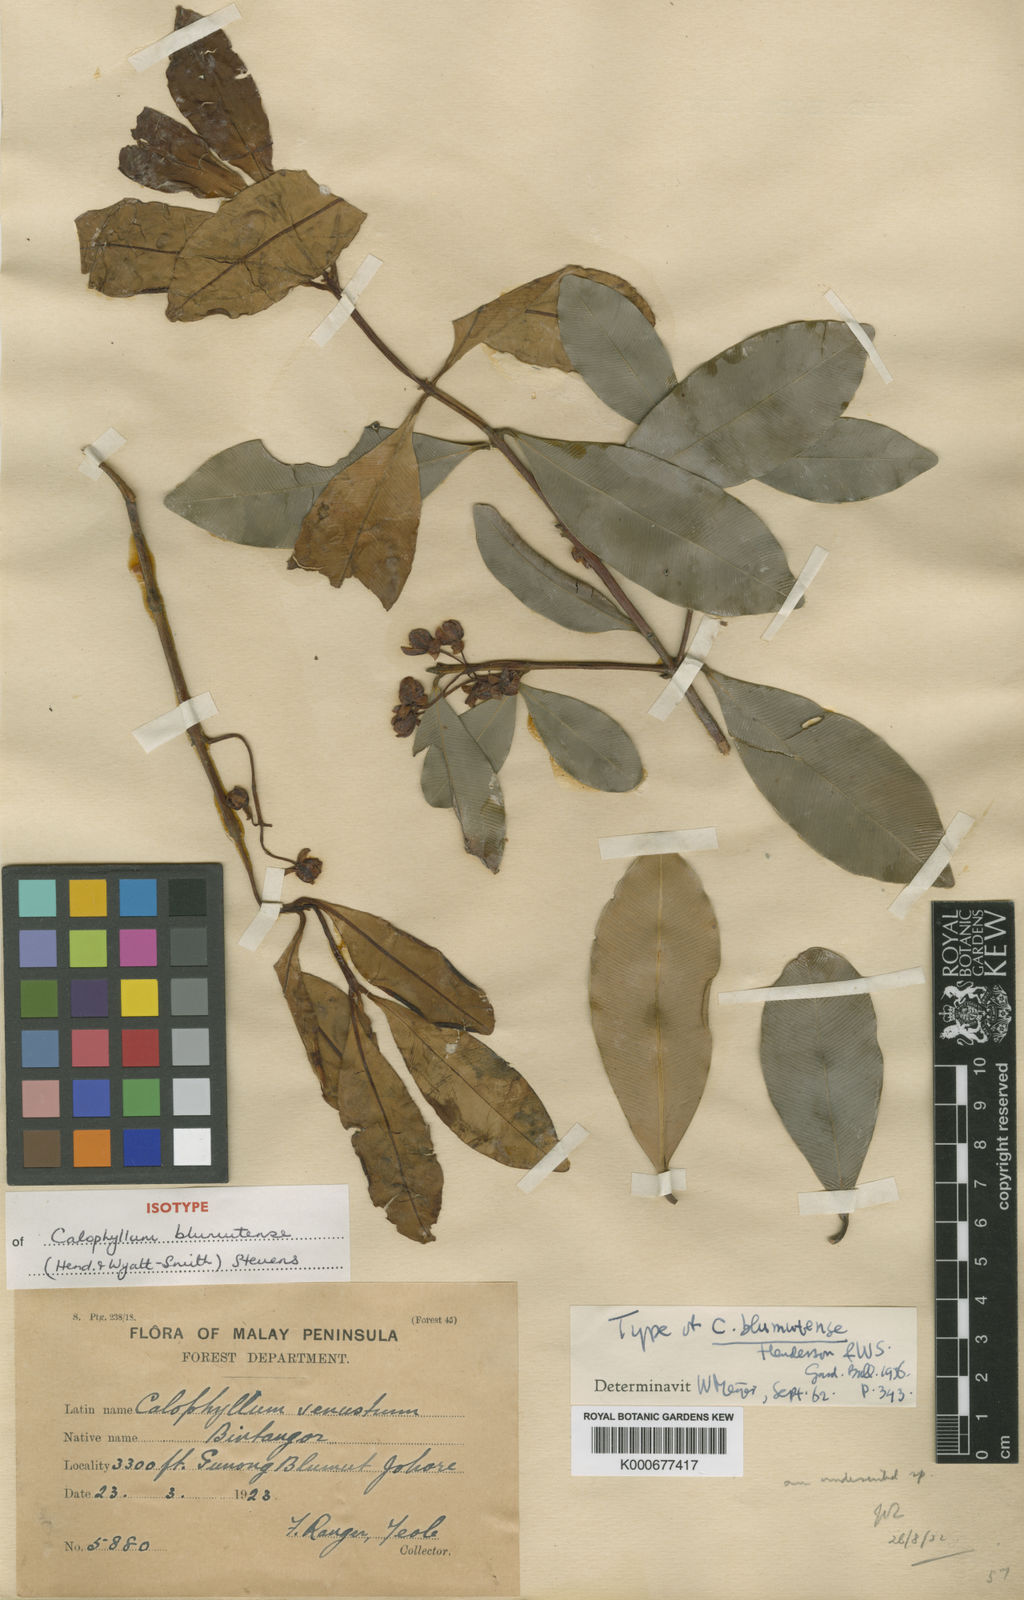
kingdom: Plantae
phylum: Tracheophyta
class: Magnoliopsida
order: Malpighiales
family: Calophyllaceae
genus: Calophyllum
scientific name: Calophyllum tetrapterum
